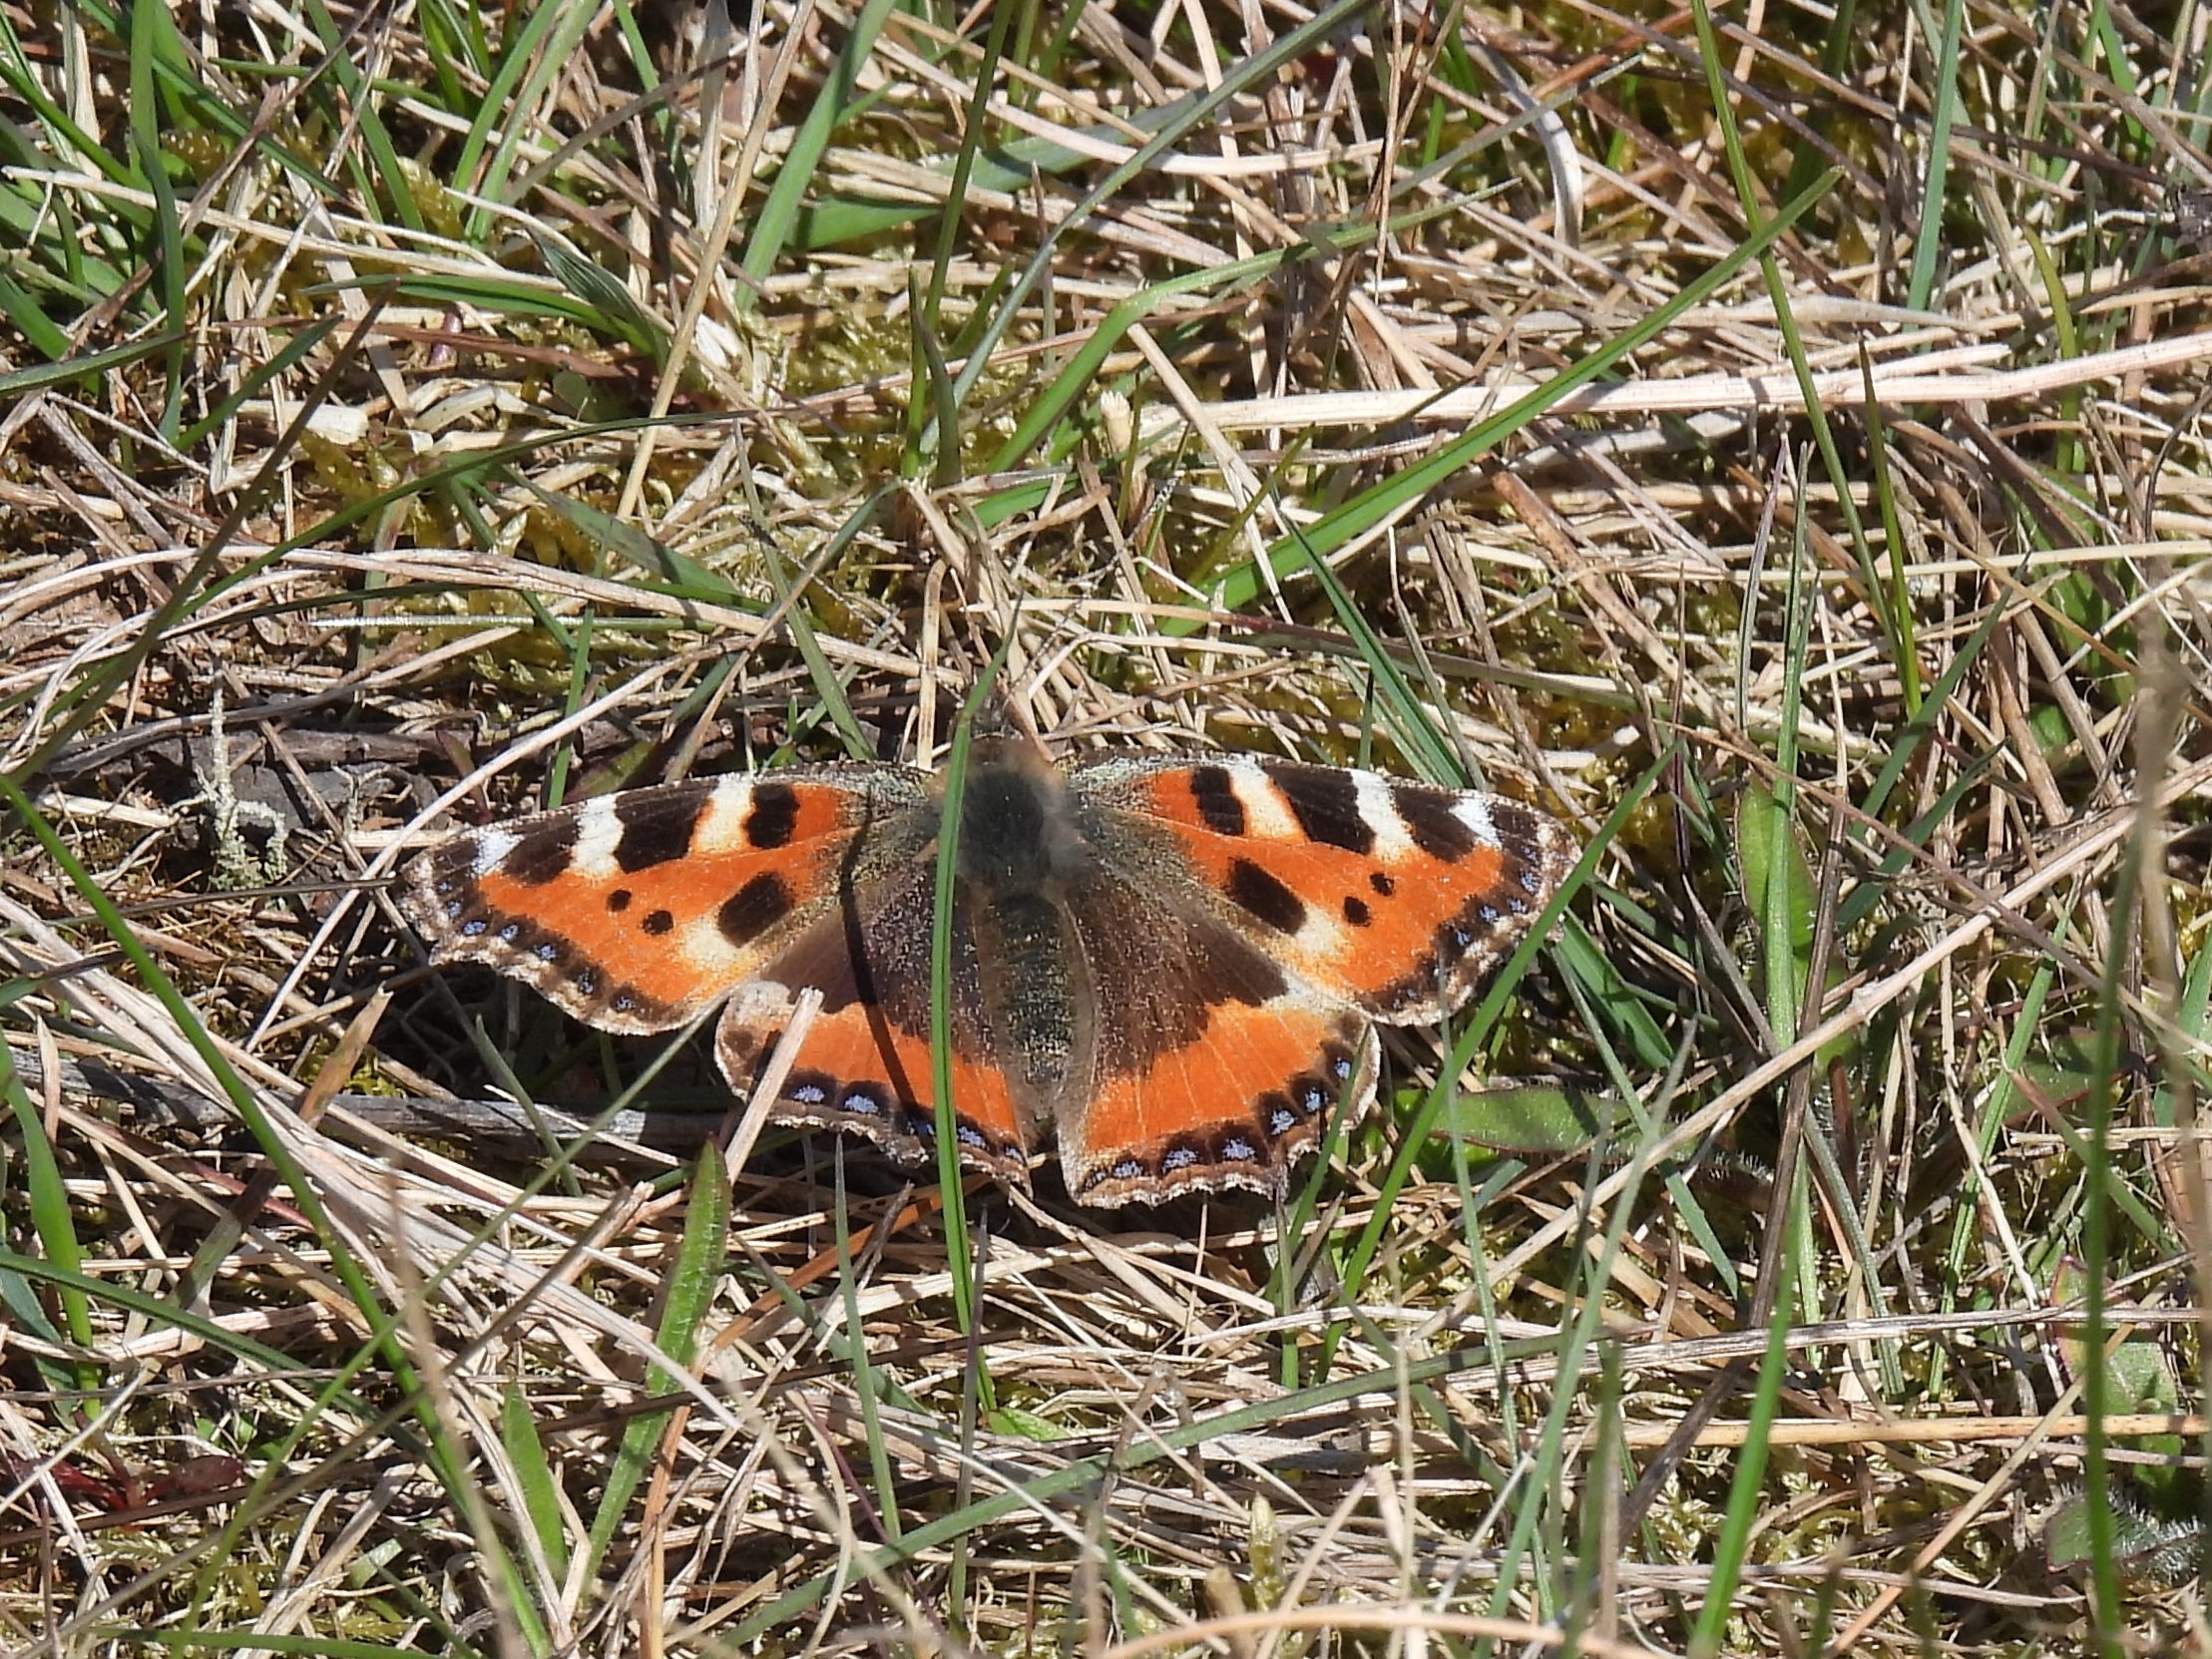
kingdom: Animalia
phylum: Arthropoda
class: Insecta
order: Lepidoptera
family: Nymphalidae
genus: Aglais
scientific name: Aglais urticae
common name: Nældens takvinge
